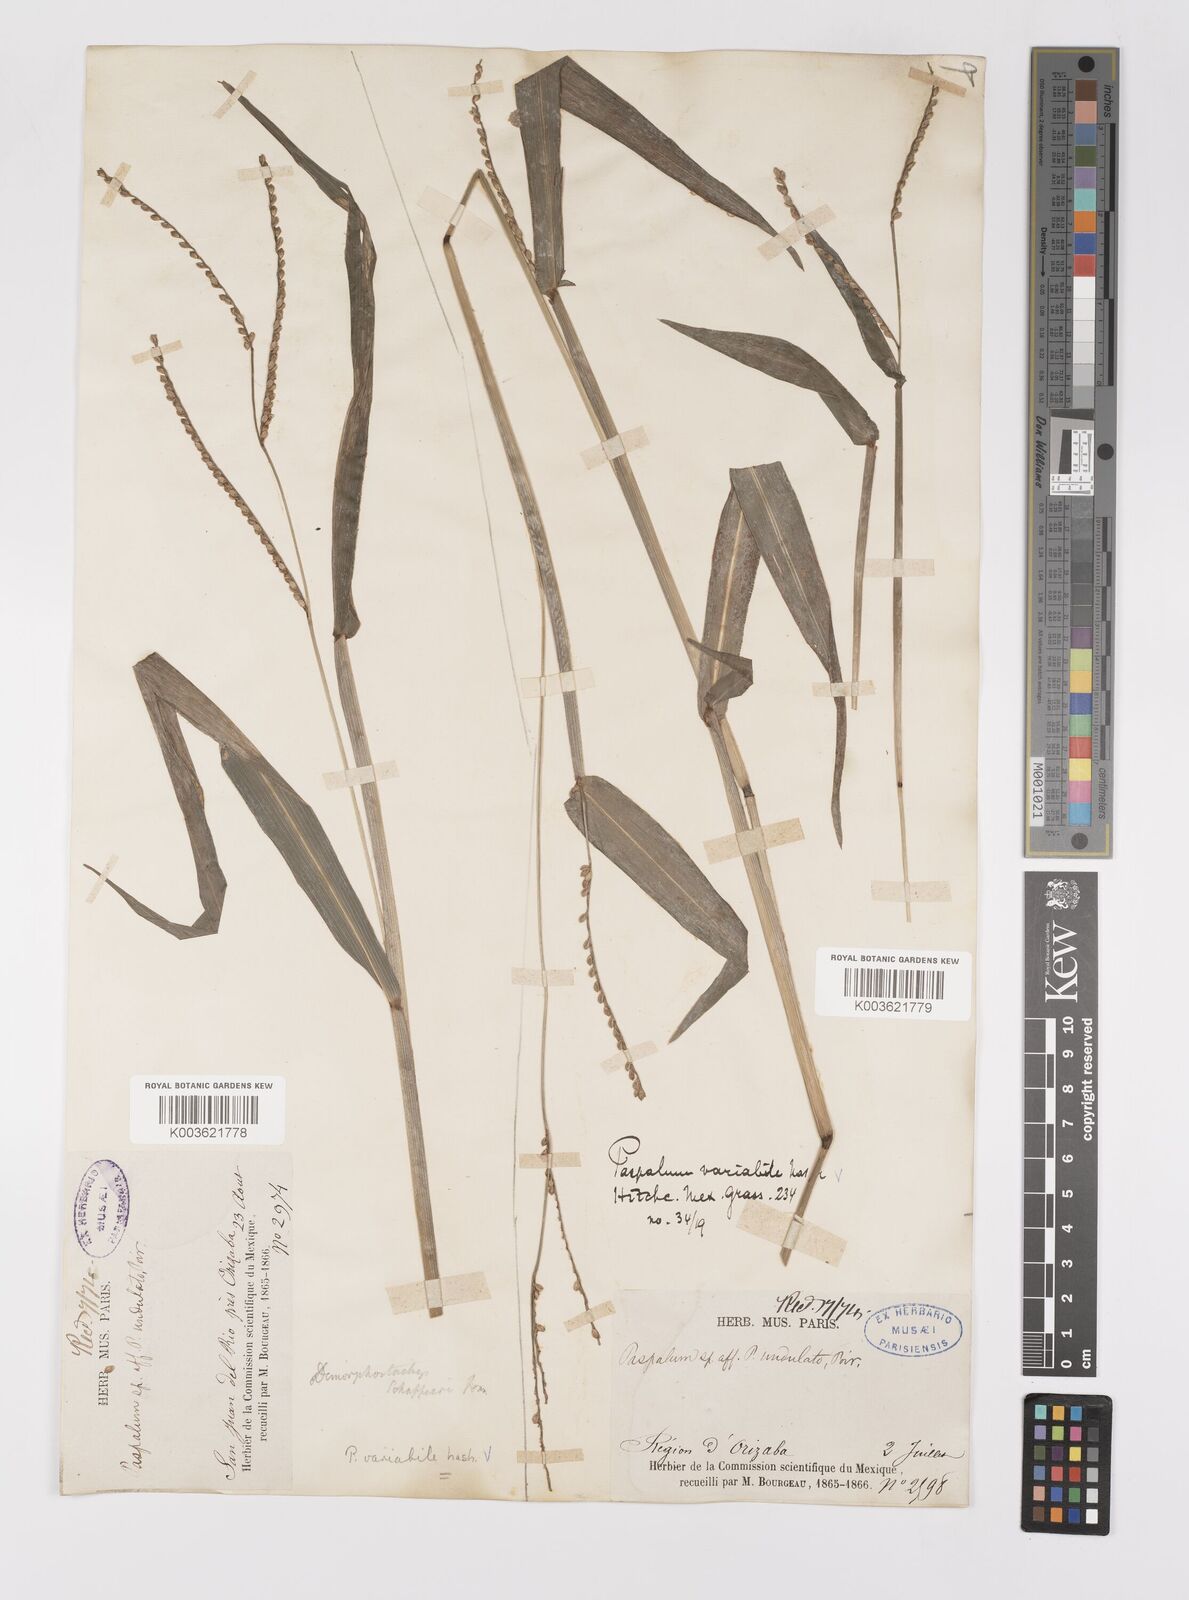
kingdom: Plantae
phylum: Tracheophyta
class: Liliopsida
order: Poales
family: Poaceae
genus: Paspalum
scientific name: Paspalum variabile
